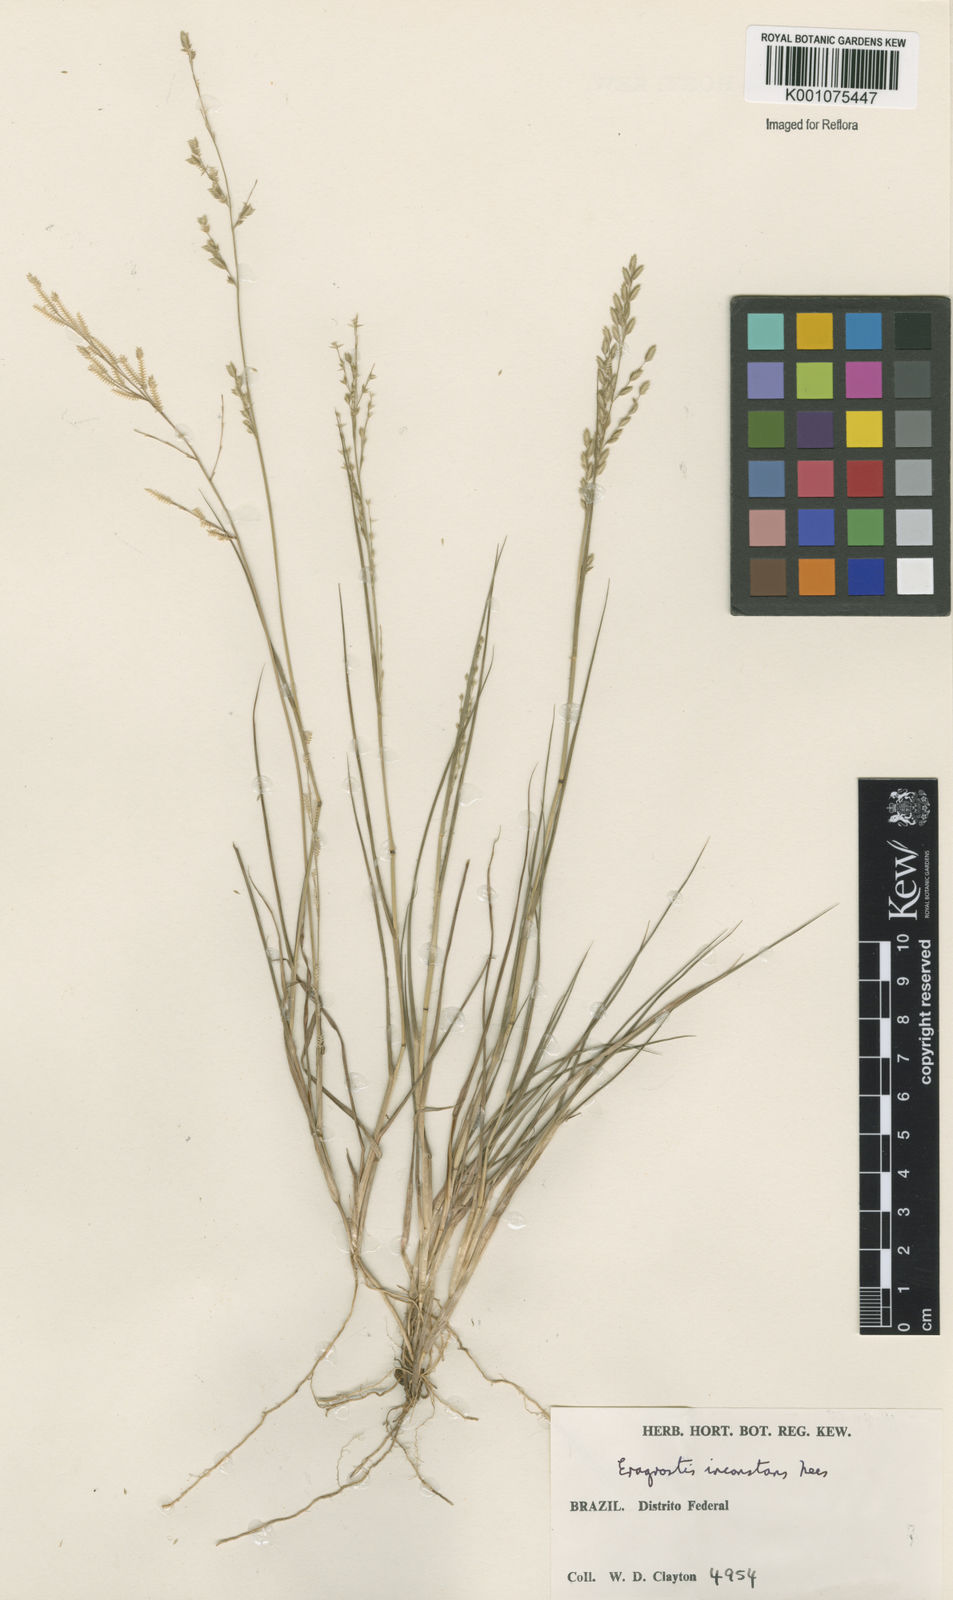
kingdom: Plantae
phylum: Tracheophyta
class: Liliopsida
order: Poales
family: Poaceae
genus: Eragrostis
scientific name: Eragrostis rufescens
